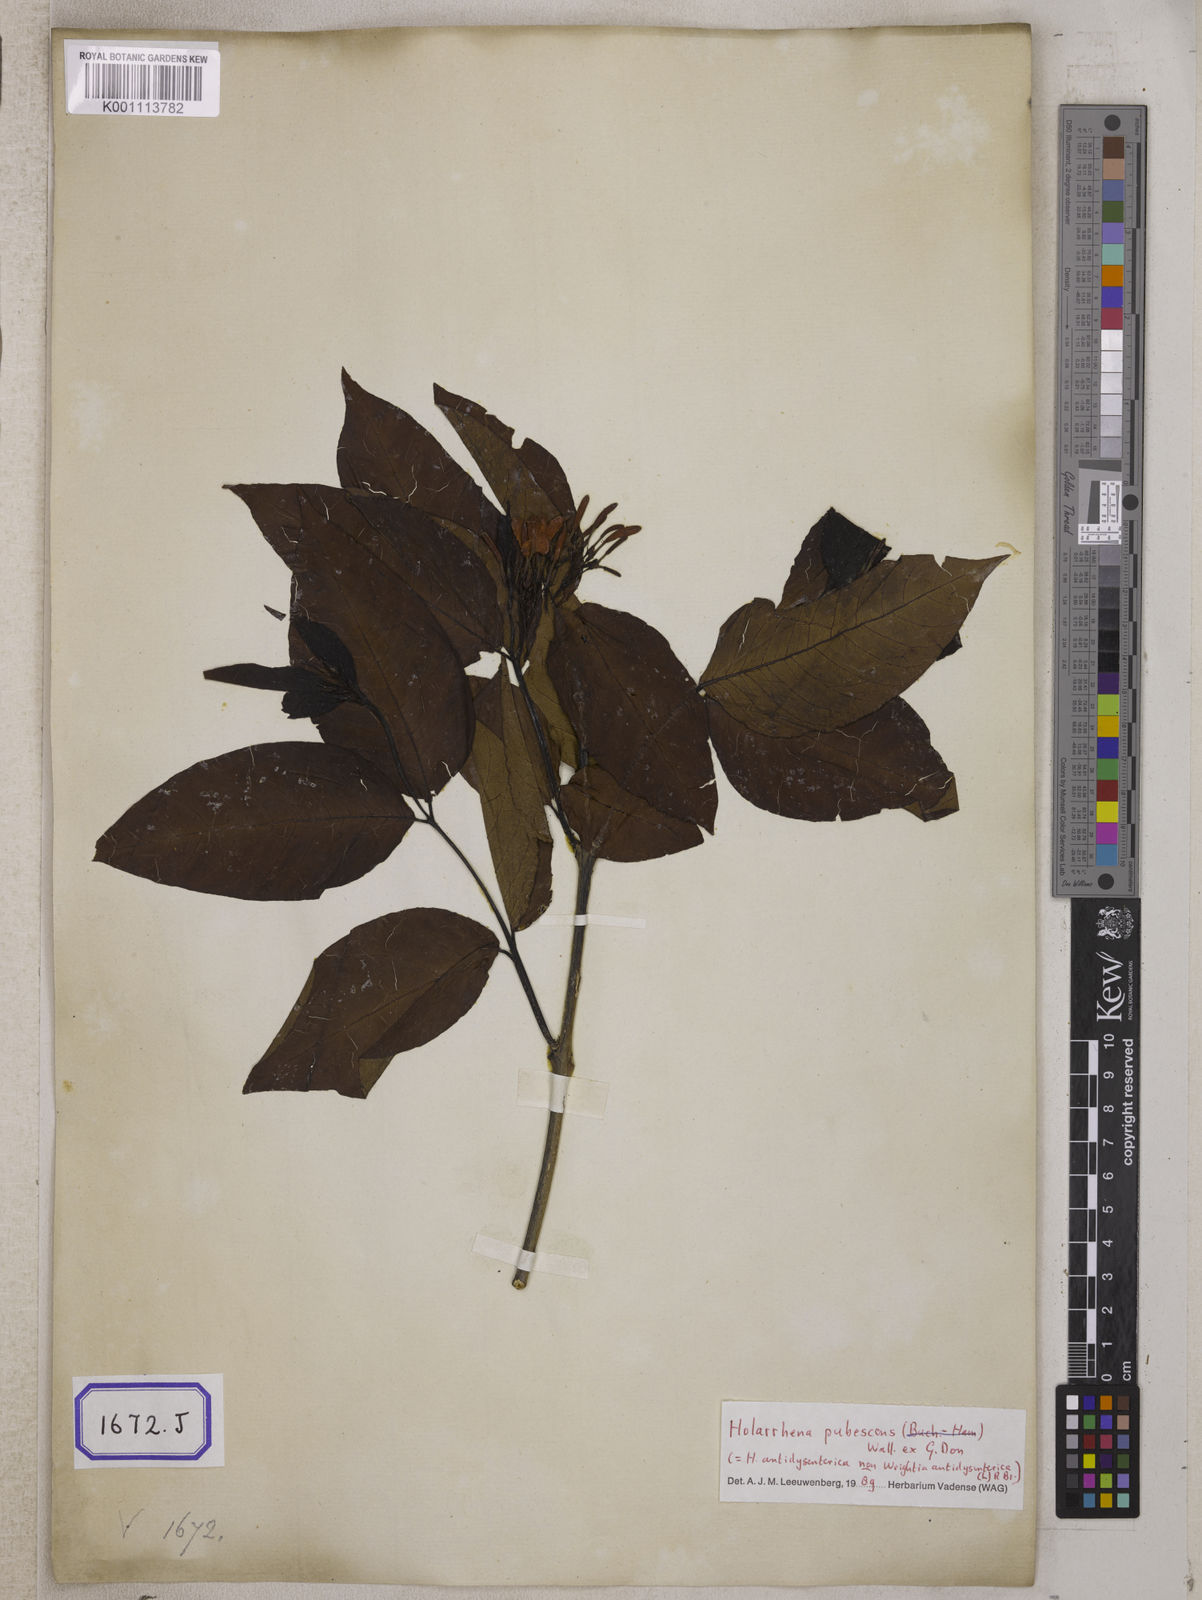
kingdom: Plantae
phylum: Tracheophyta
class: Magnoliopsida
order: Gentianales
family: Apocynaceae
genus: Holarrhena
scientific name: Holarrhena pubescens
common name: Bitter oleander
